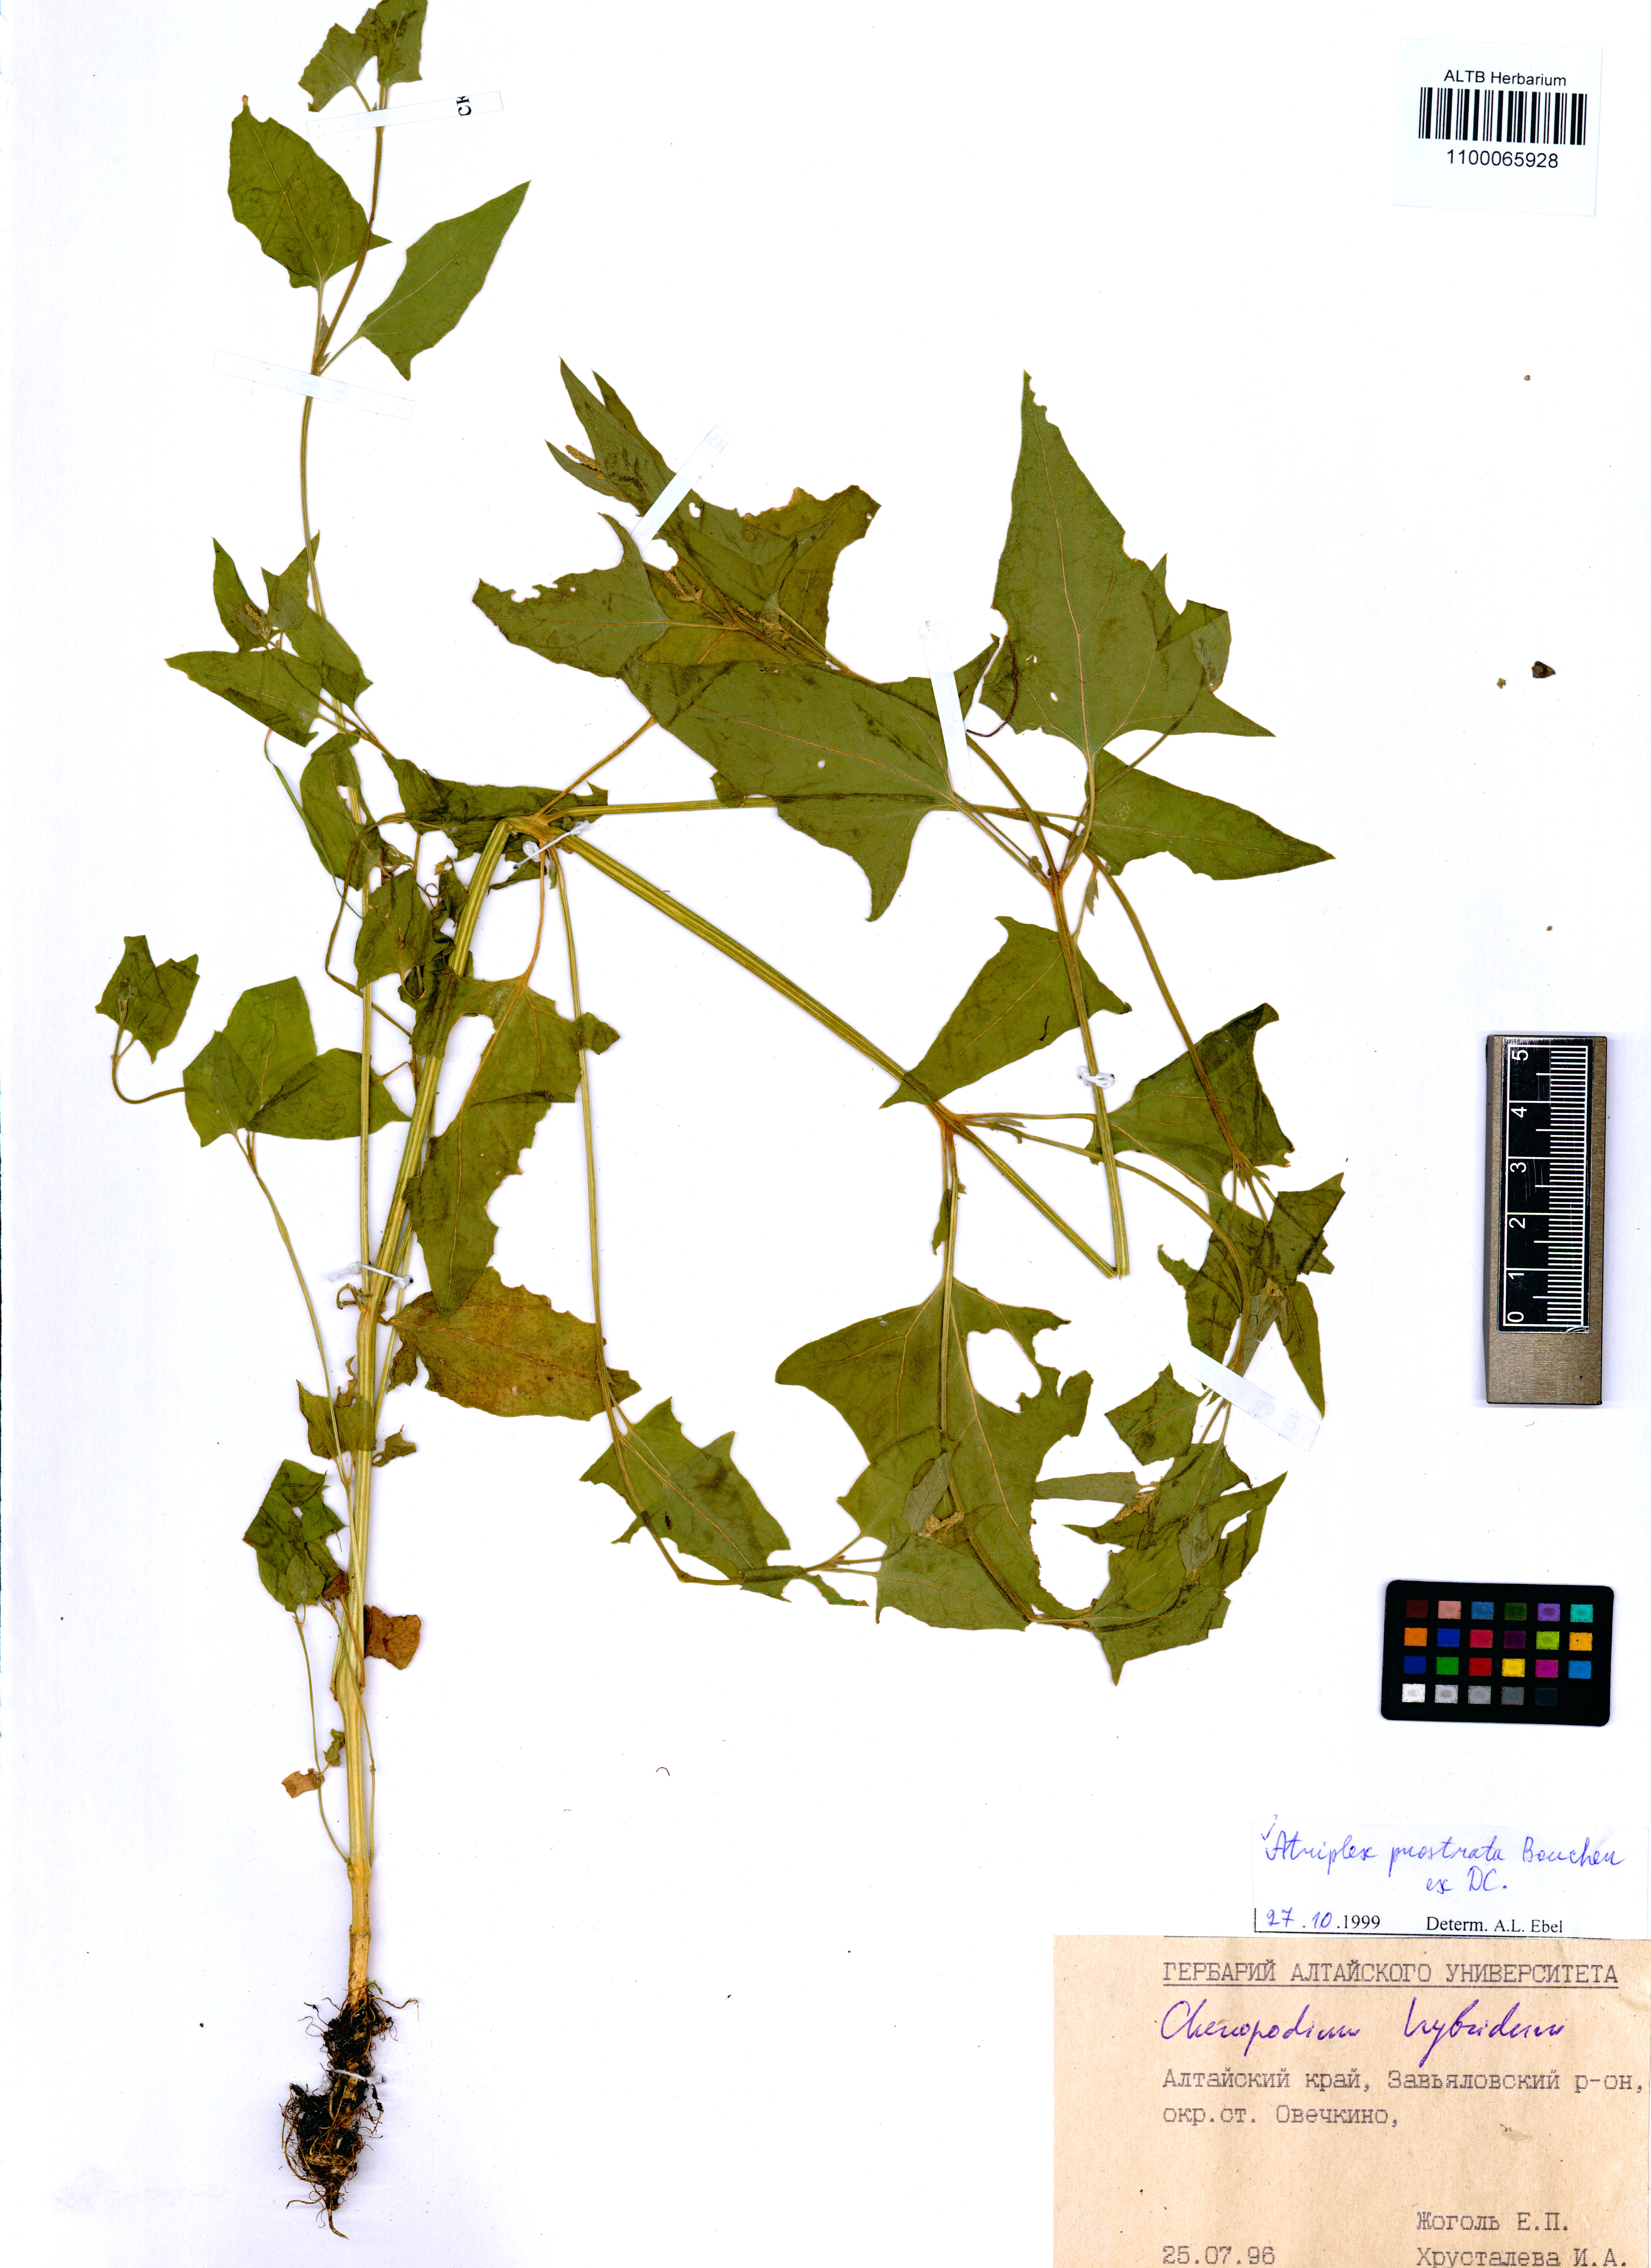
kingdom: Plantae
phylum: Tracheophyta
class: Magnoliopsida
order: Caryophyllales
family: Amaranthaceae
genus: Atriplex
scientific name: Atriplex prostrata
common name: Spear-leaved orache
